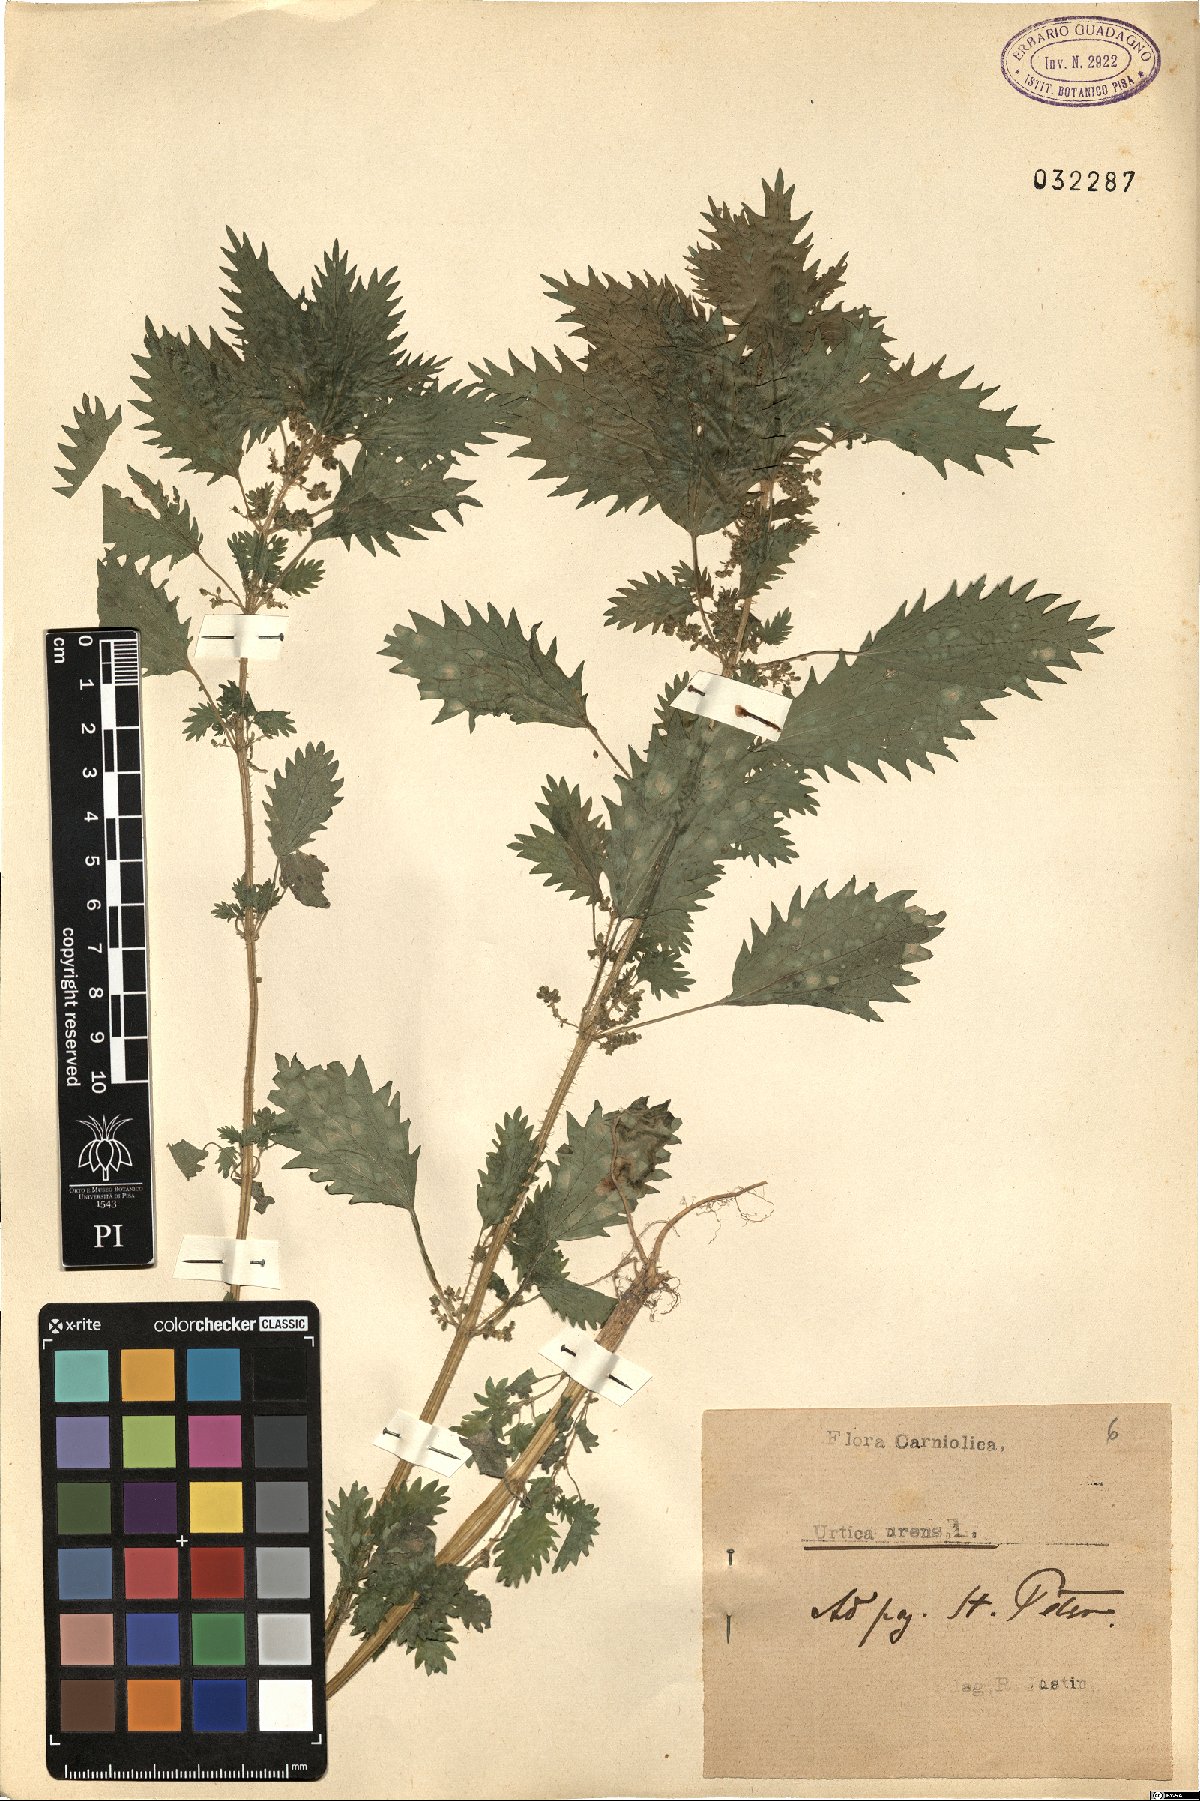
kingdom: Plantae
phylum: Tracheophyta
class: Magnoliopsida
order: Rosales
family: Urticaceae
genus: Urtica
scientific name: Urtica urens
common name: Dwarf nettle
